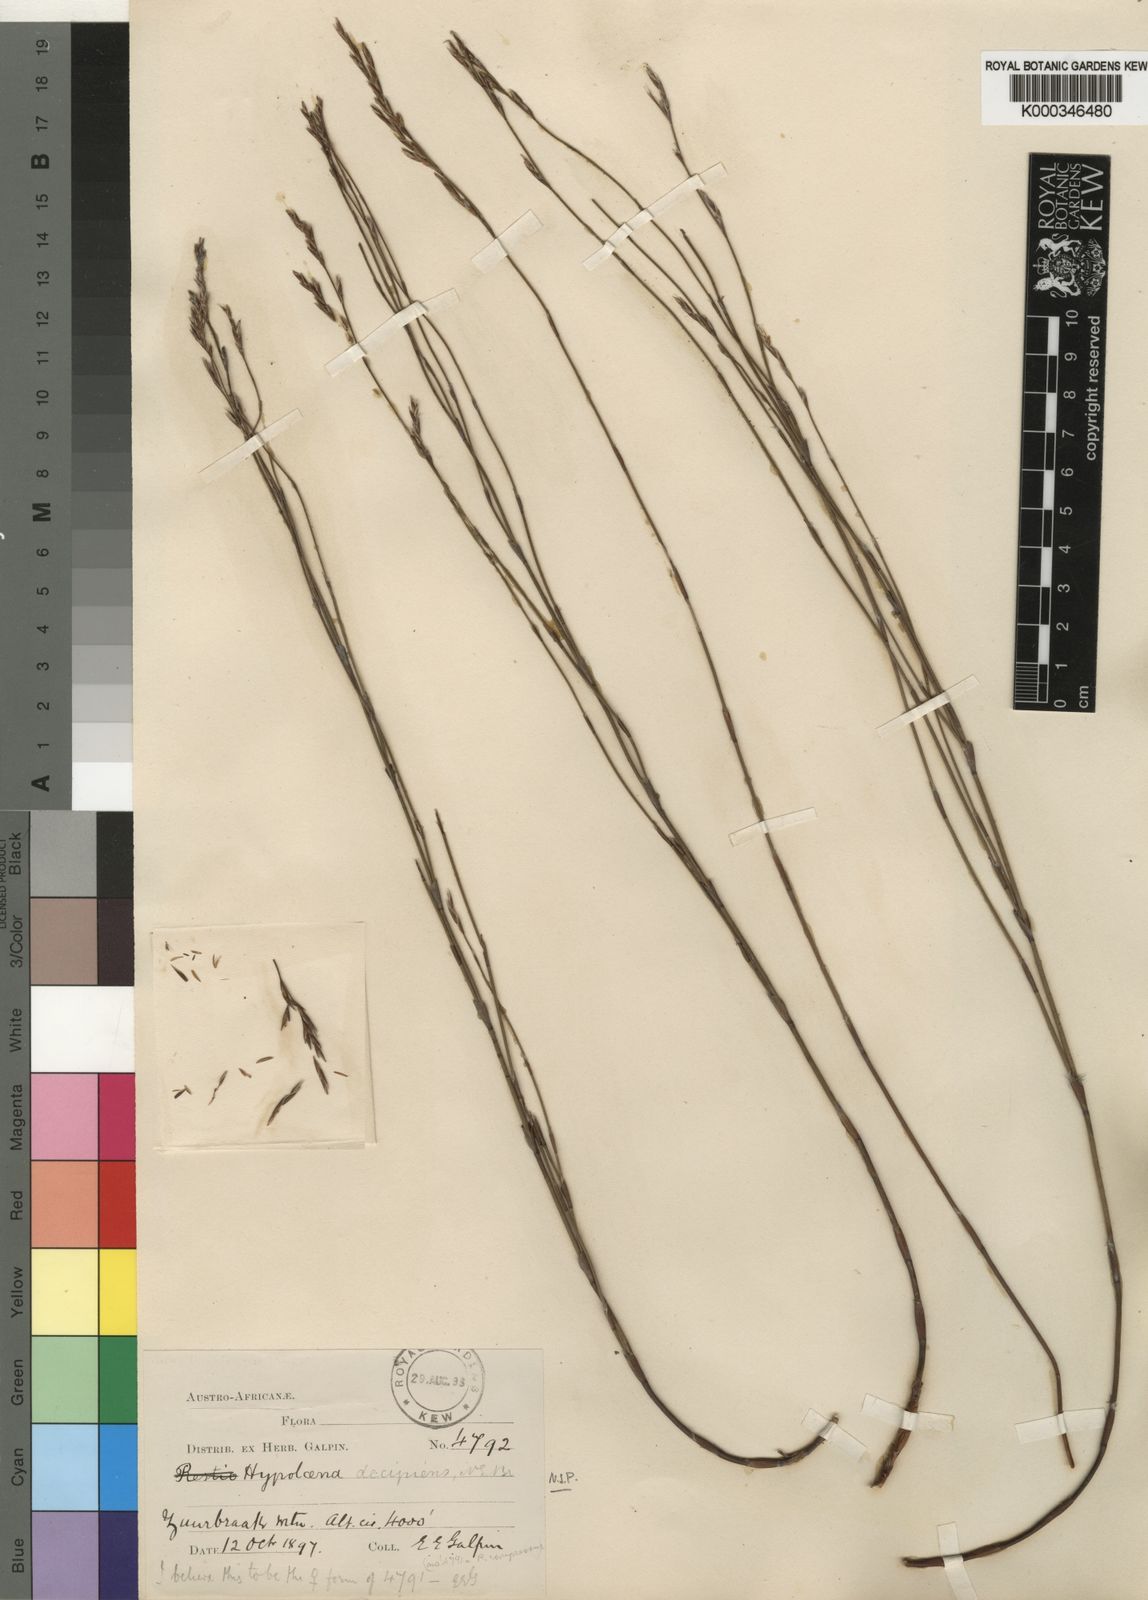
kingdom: Plantae
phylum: Tracheophyta
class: Liliopsida
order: Poales
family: Restionaceae
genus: Restio
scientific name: Restio decipiens
